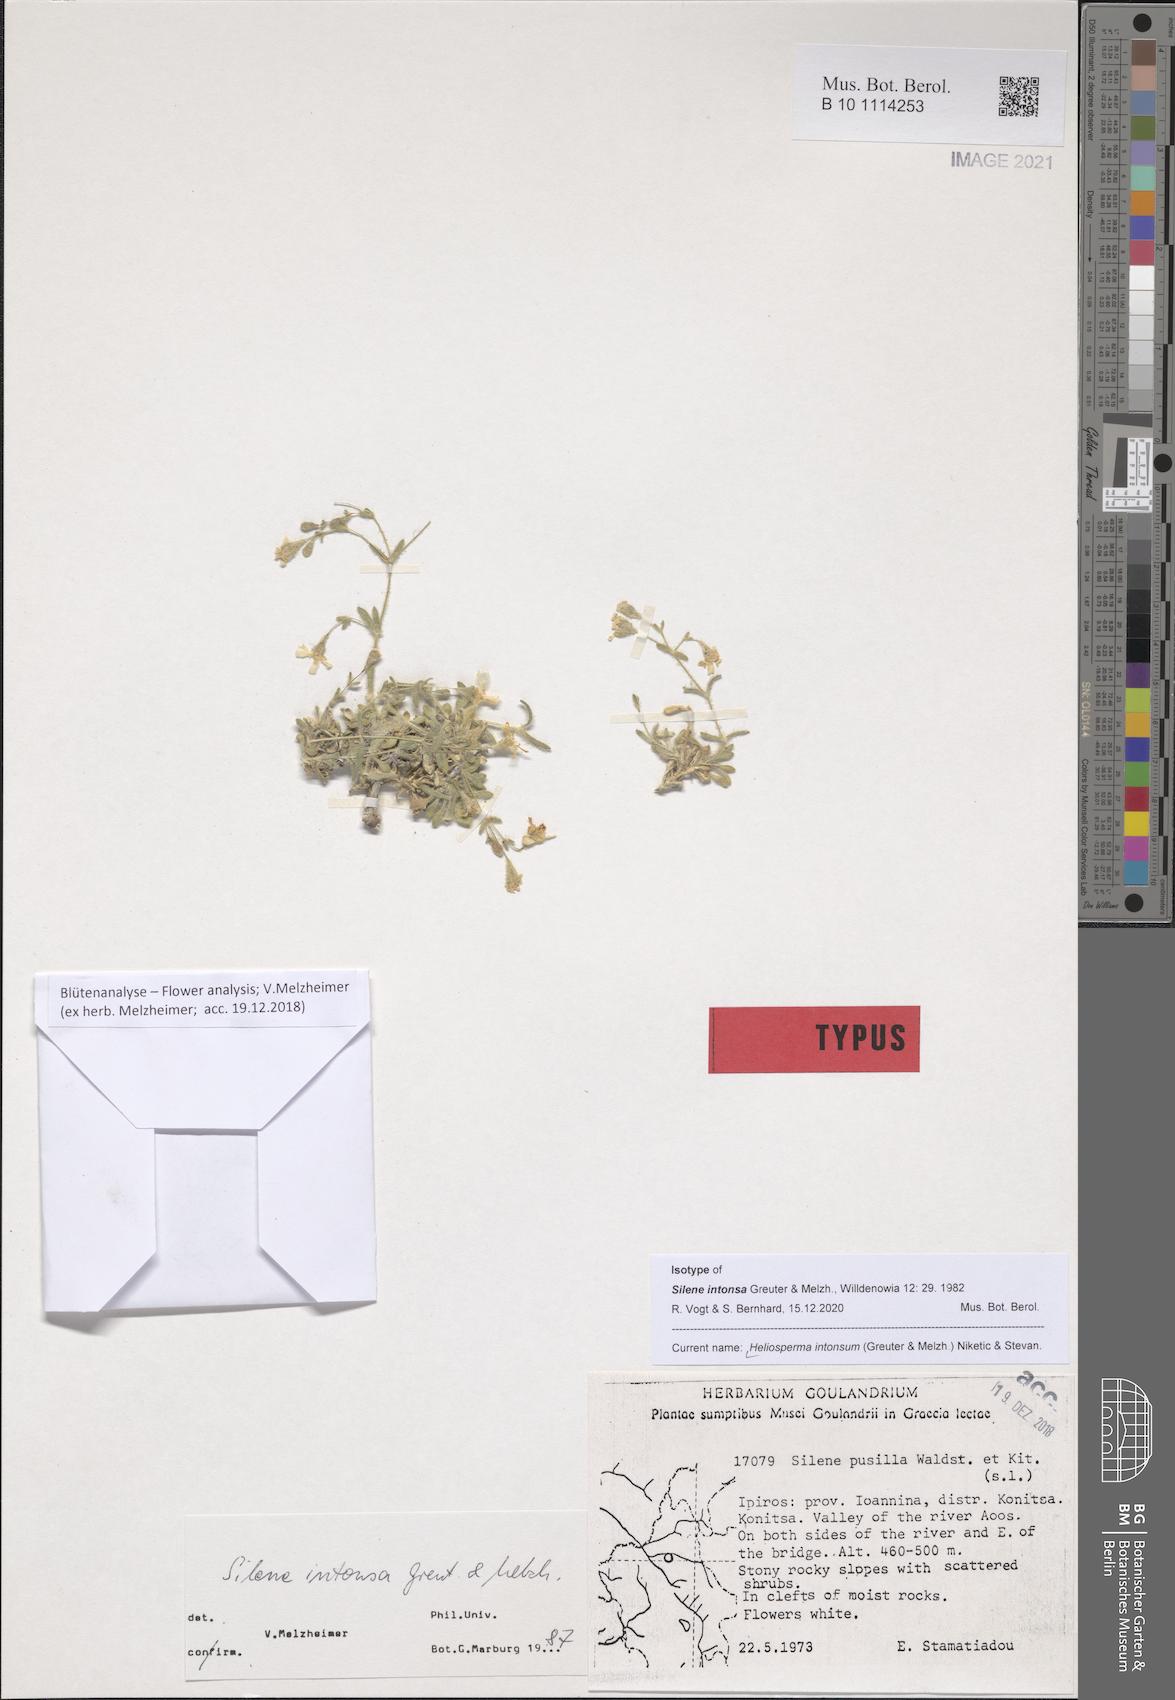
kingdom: Plantae
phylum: Tracheophyta
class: Magnoliopsida
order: Caryophyllales
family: Caryophyllaceae
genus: Heliosperma
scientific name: Heliosperma intonsum
